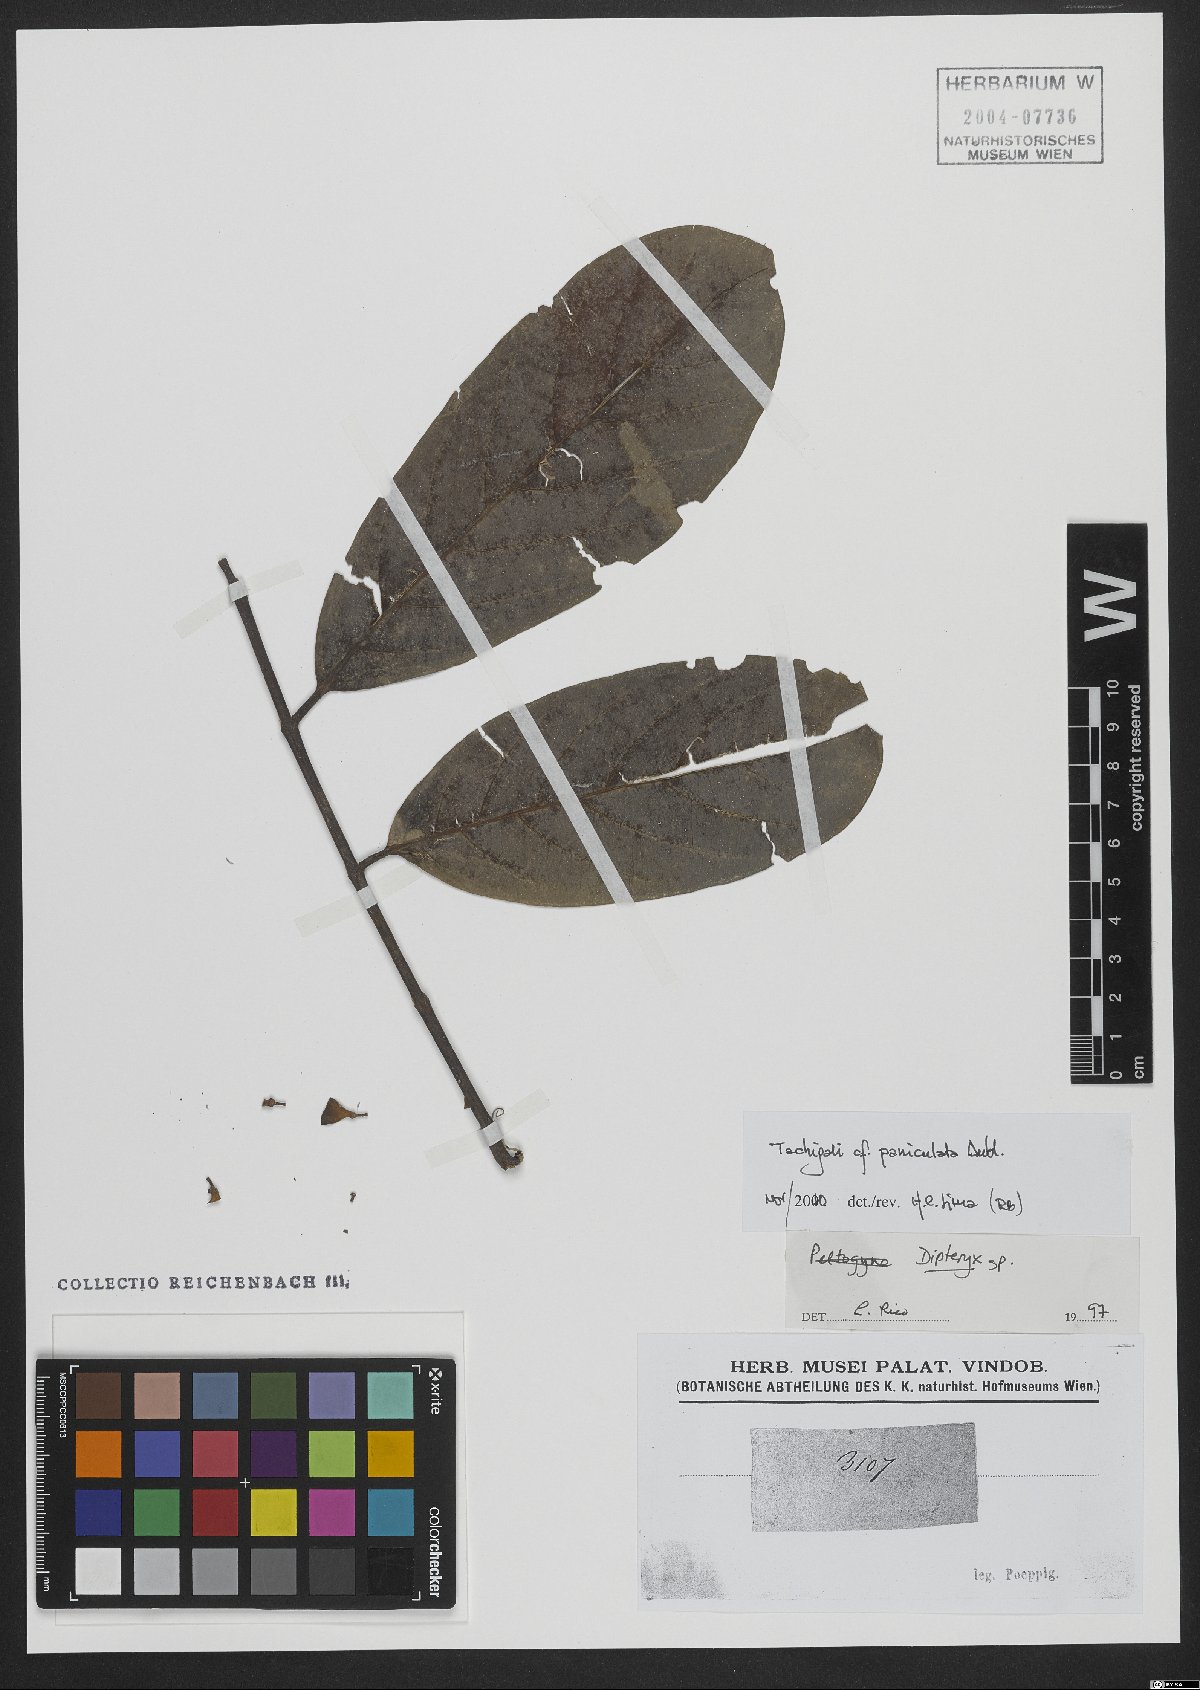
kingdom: Plantae
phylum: Tracheophyta
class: Magnoliopsida
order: Fabales
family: Fabaceae
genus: Tachigali
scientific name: Tachigali paniculata
